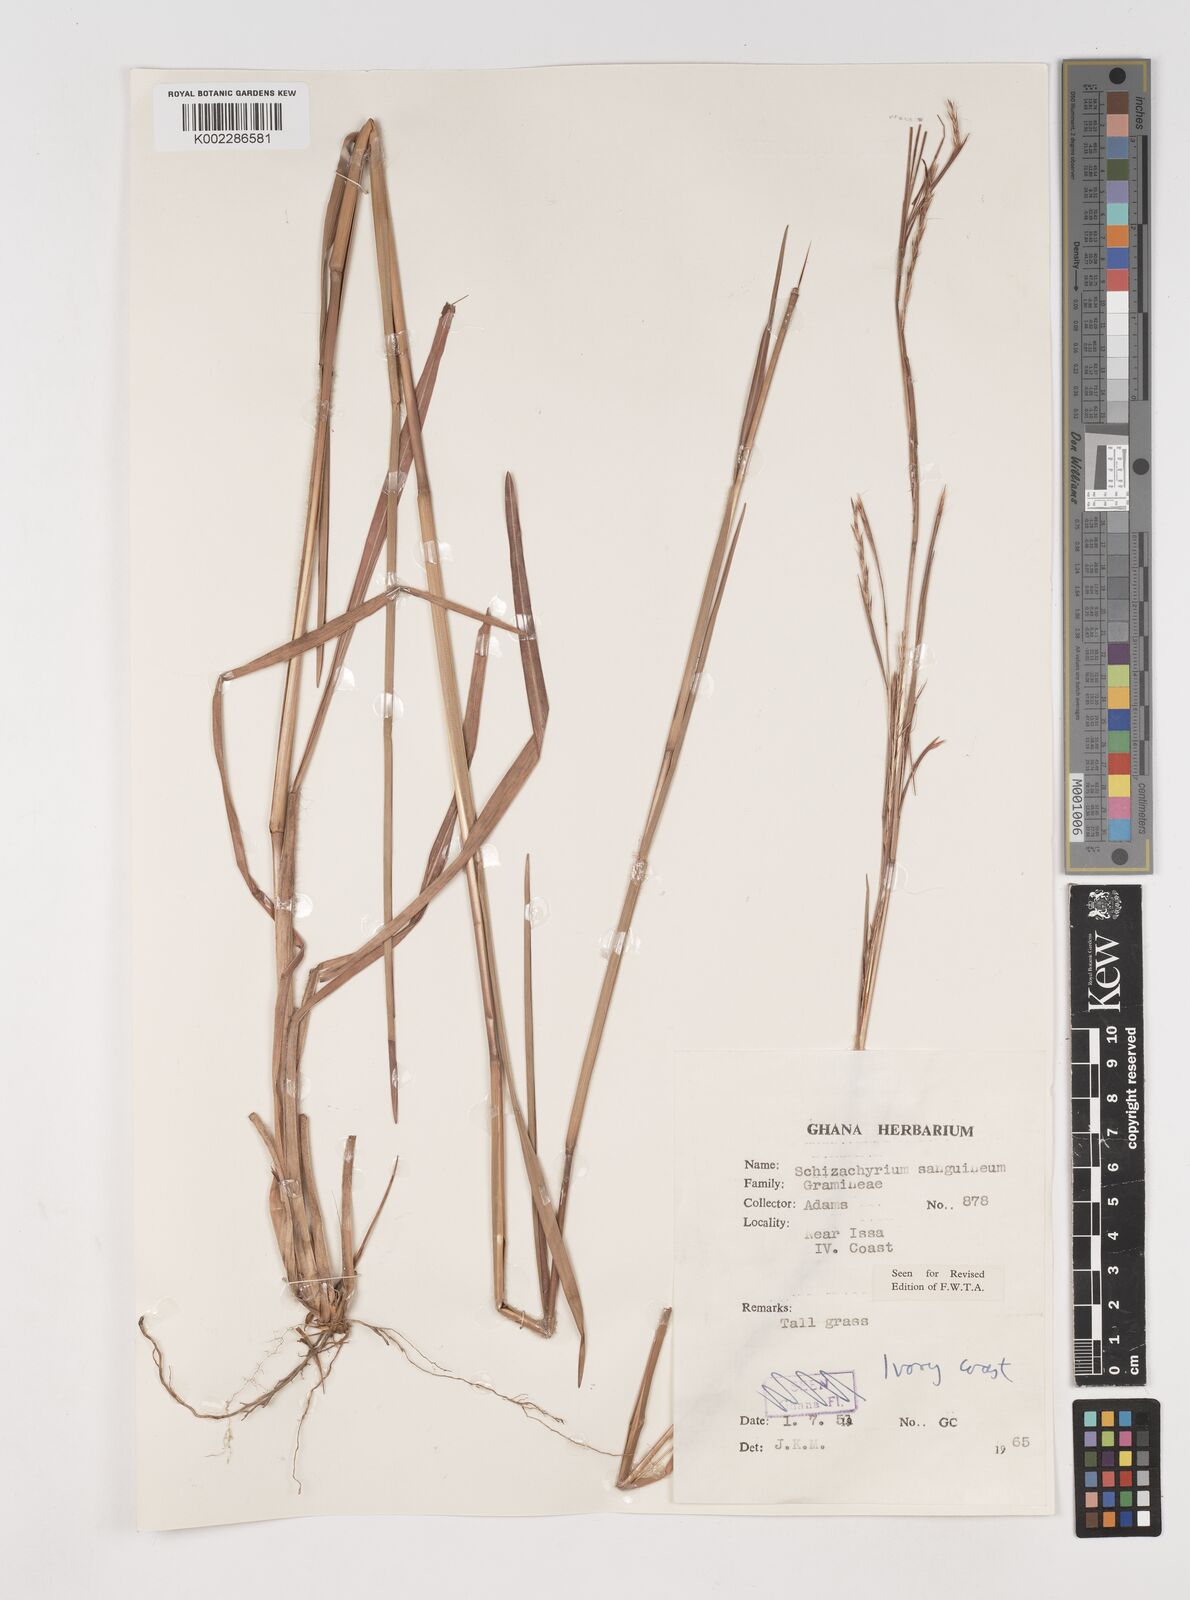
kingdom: Plantae
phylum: Tracheophyta
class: Liliopsida
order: Poales
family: Poaceae
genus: Schizachyrium
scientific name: Schizachyrium sanguineum
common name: Crimson bluestem
